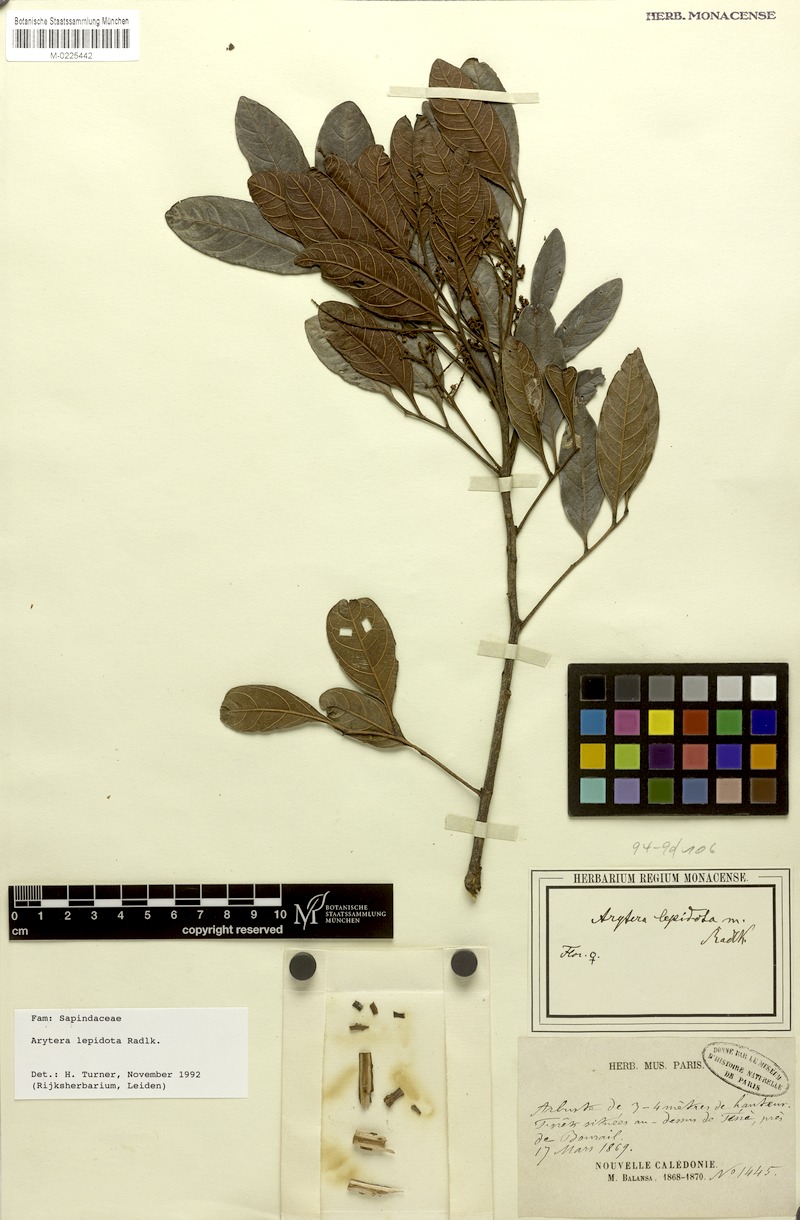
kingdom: Plantae
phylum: Tracheophyta
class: Magnoliopsida
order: Sapindales
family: Sapindaceae
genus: Lepidocupania
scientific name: Lepidocupania lepidota
